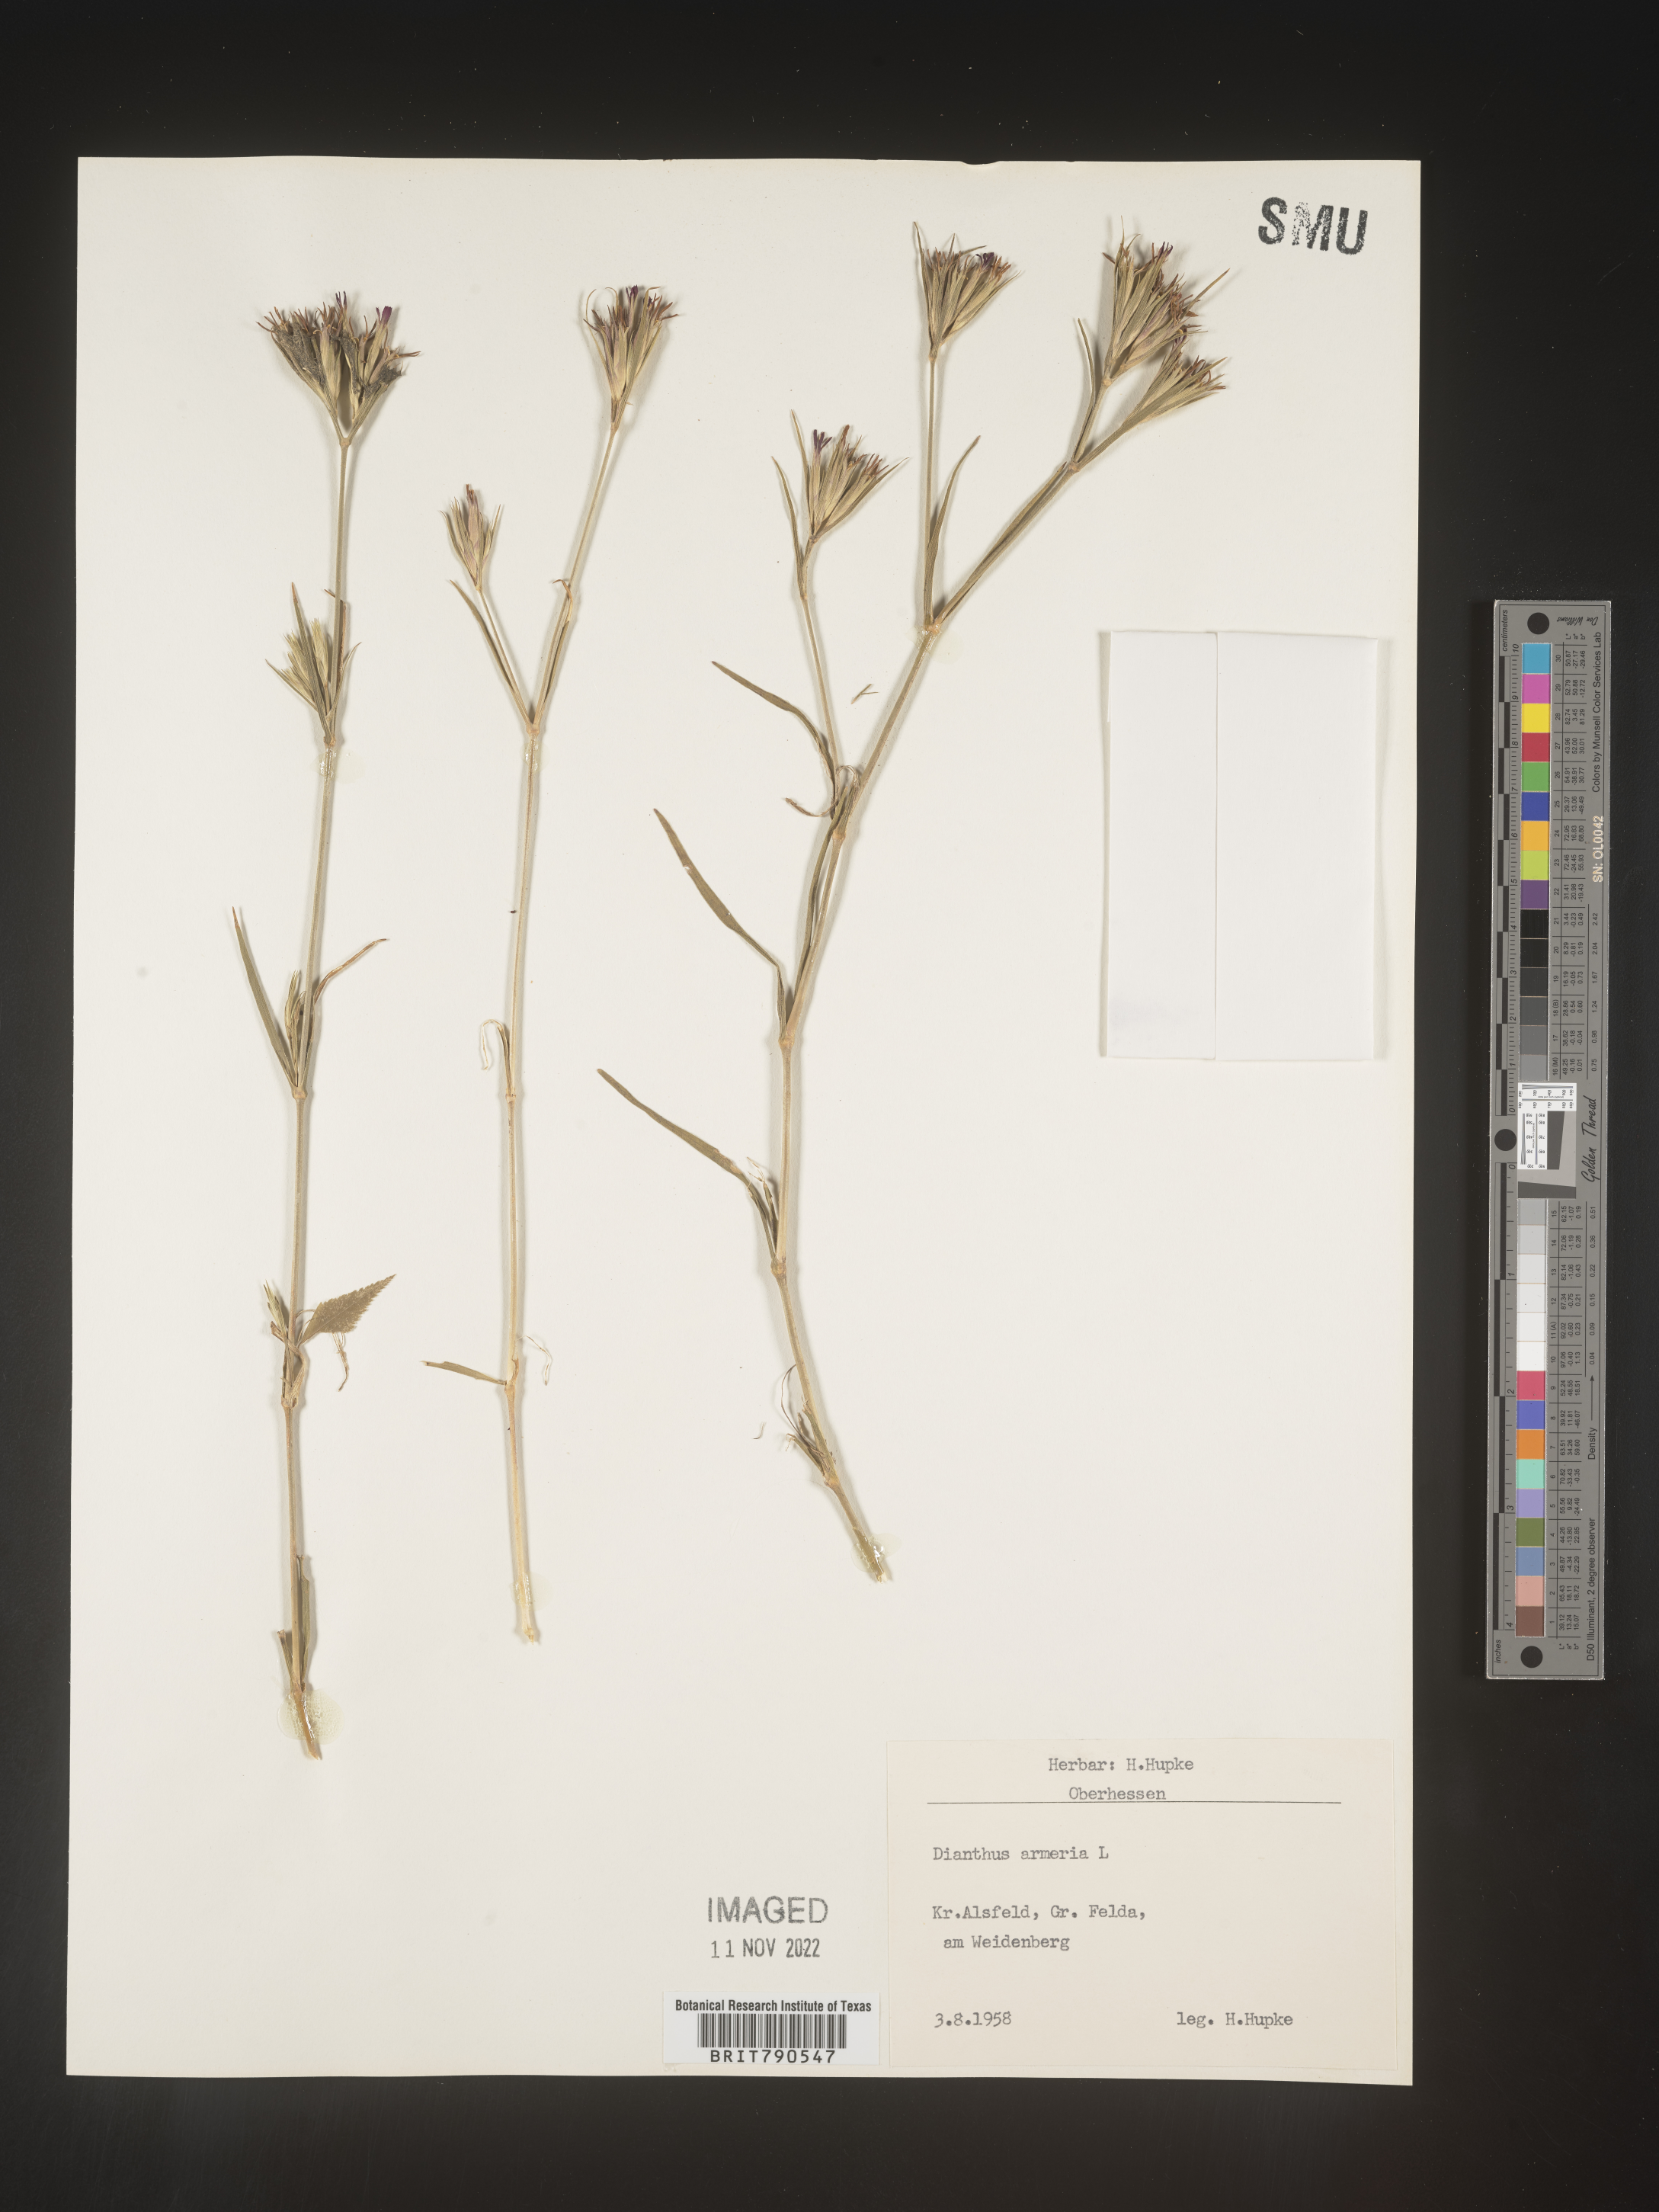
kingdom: Plantae
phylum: Tracheophyta
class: Magnoliopsida
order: Caryophyllales
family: Caryophyllaceae
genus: Dianthus
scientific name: Dianthus
